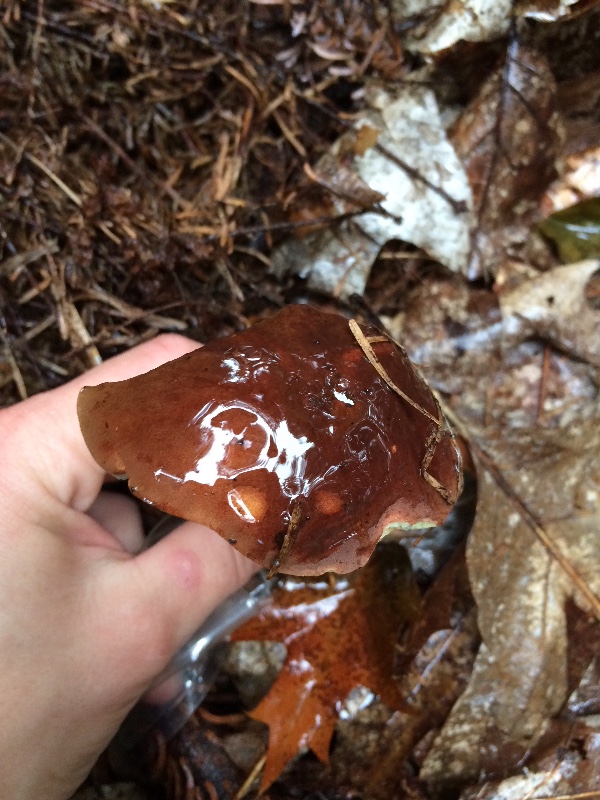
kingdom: Fungi
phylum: Basidiomycota
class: Agaricomycetes
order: Boletales
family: Boletaceae
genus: Imleria
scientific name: Imleria badia
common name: brunstokket rørhat
